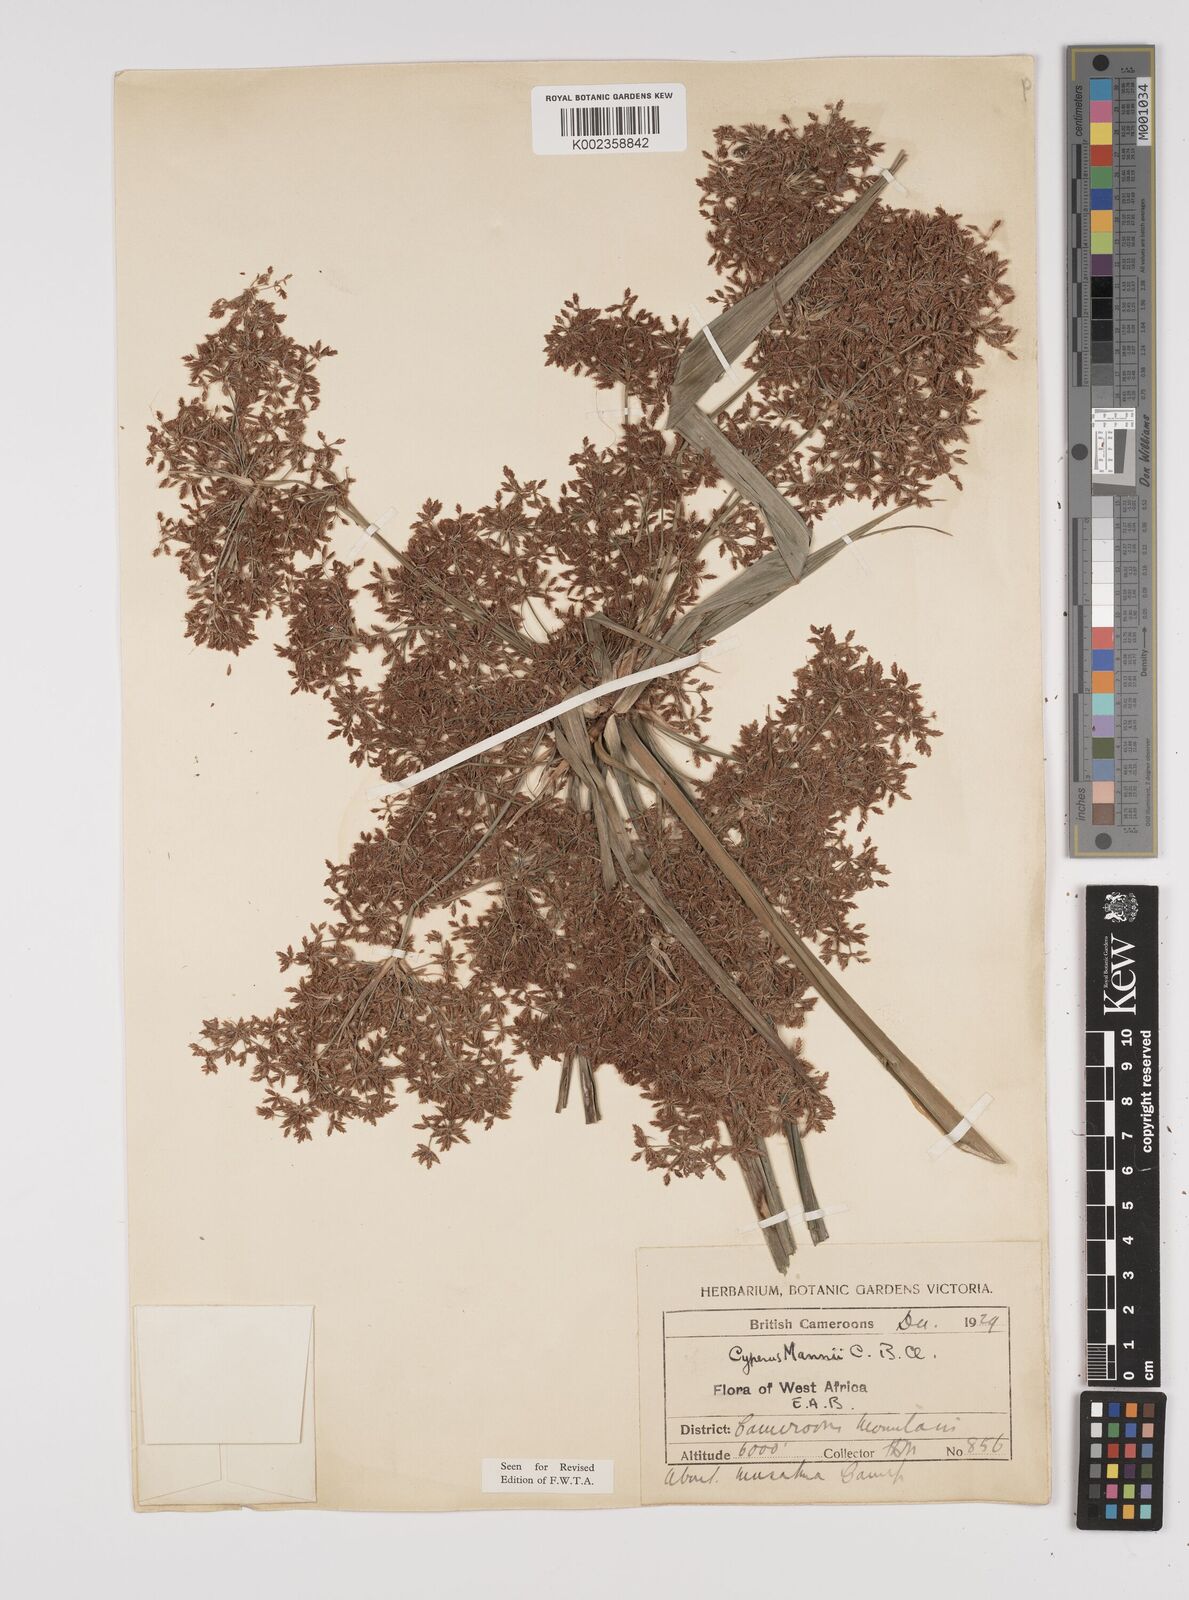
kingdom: Plantae
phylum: Tracheophyta
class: Liliopsida
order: Poales
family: Cyperaceae
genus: Cyperus
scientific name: Cyperus baronii
